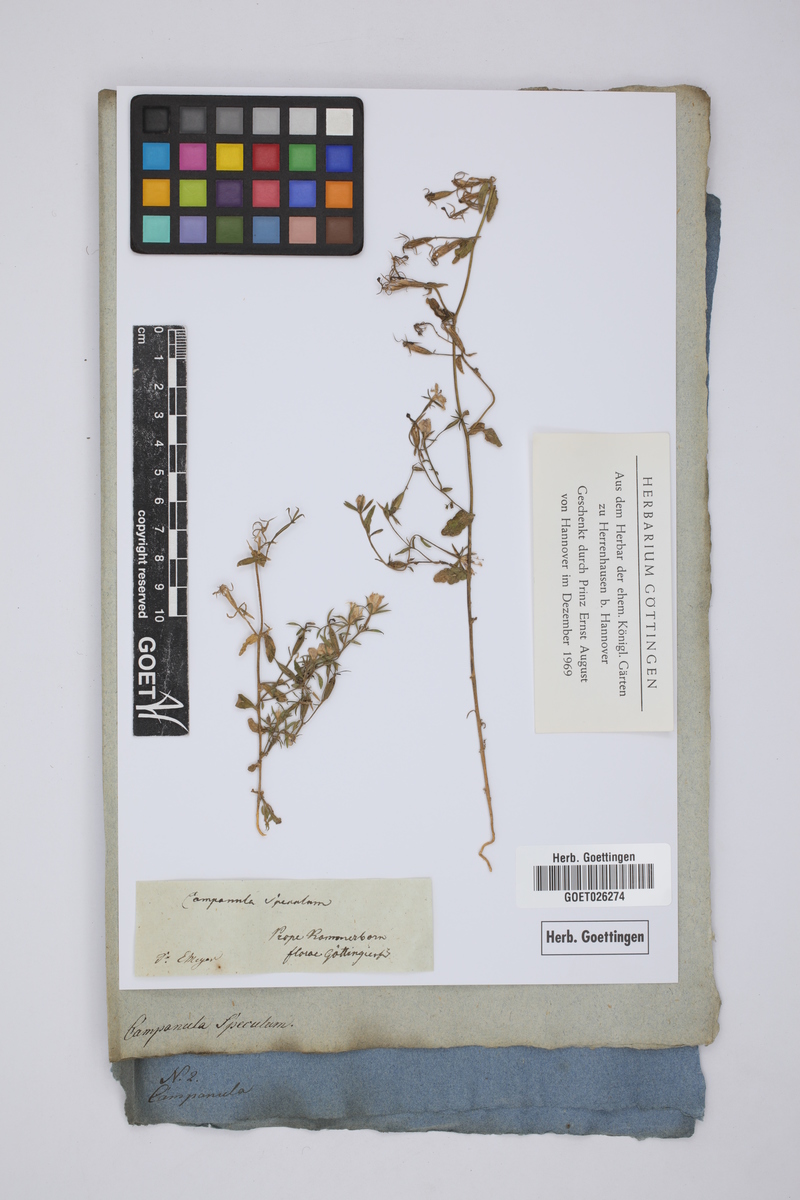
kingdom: Plantae
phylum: Tracheophyta
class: Magnoliopsida
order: Asterales
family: Campanulaceae
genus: Campanula
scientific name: Campanula speculum
